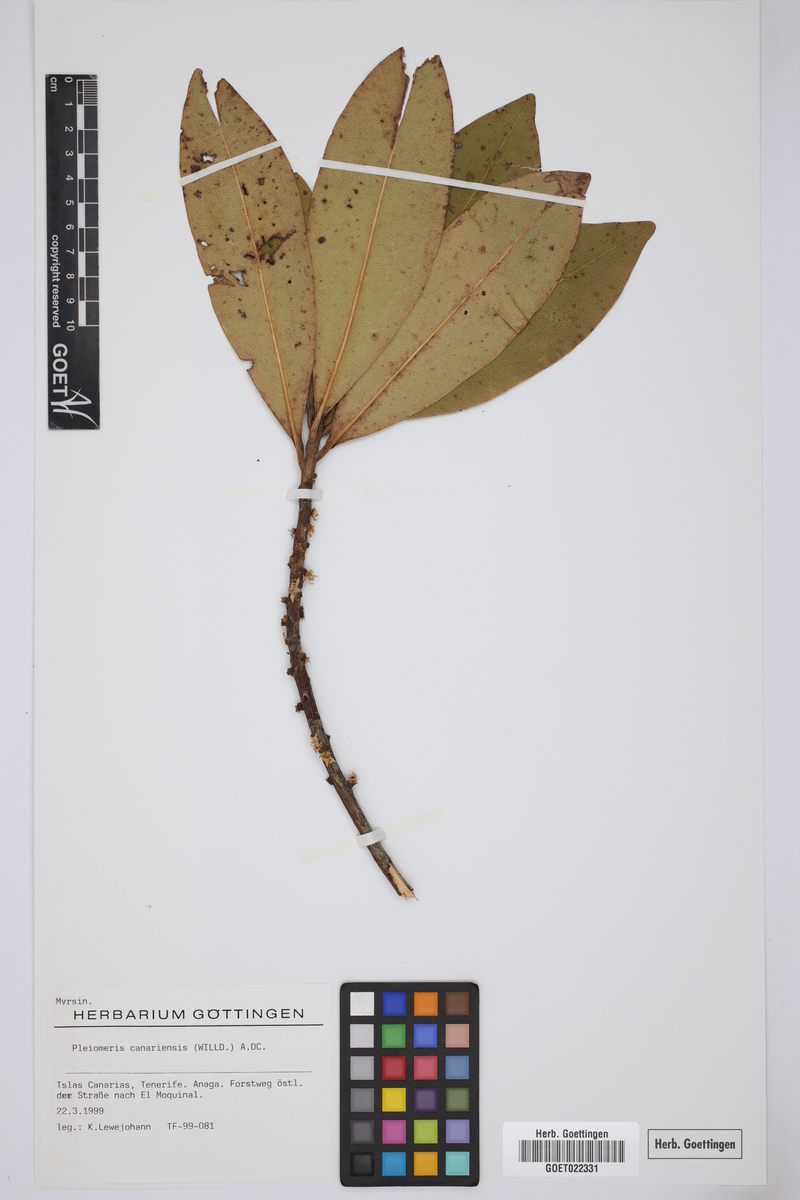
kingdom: Plantae
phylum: Tracheophyta
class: Magnoliopsida
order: Ericales
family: Primulaceae
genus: Pleiomeris
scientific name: Pleiomeris canariensis
